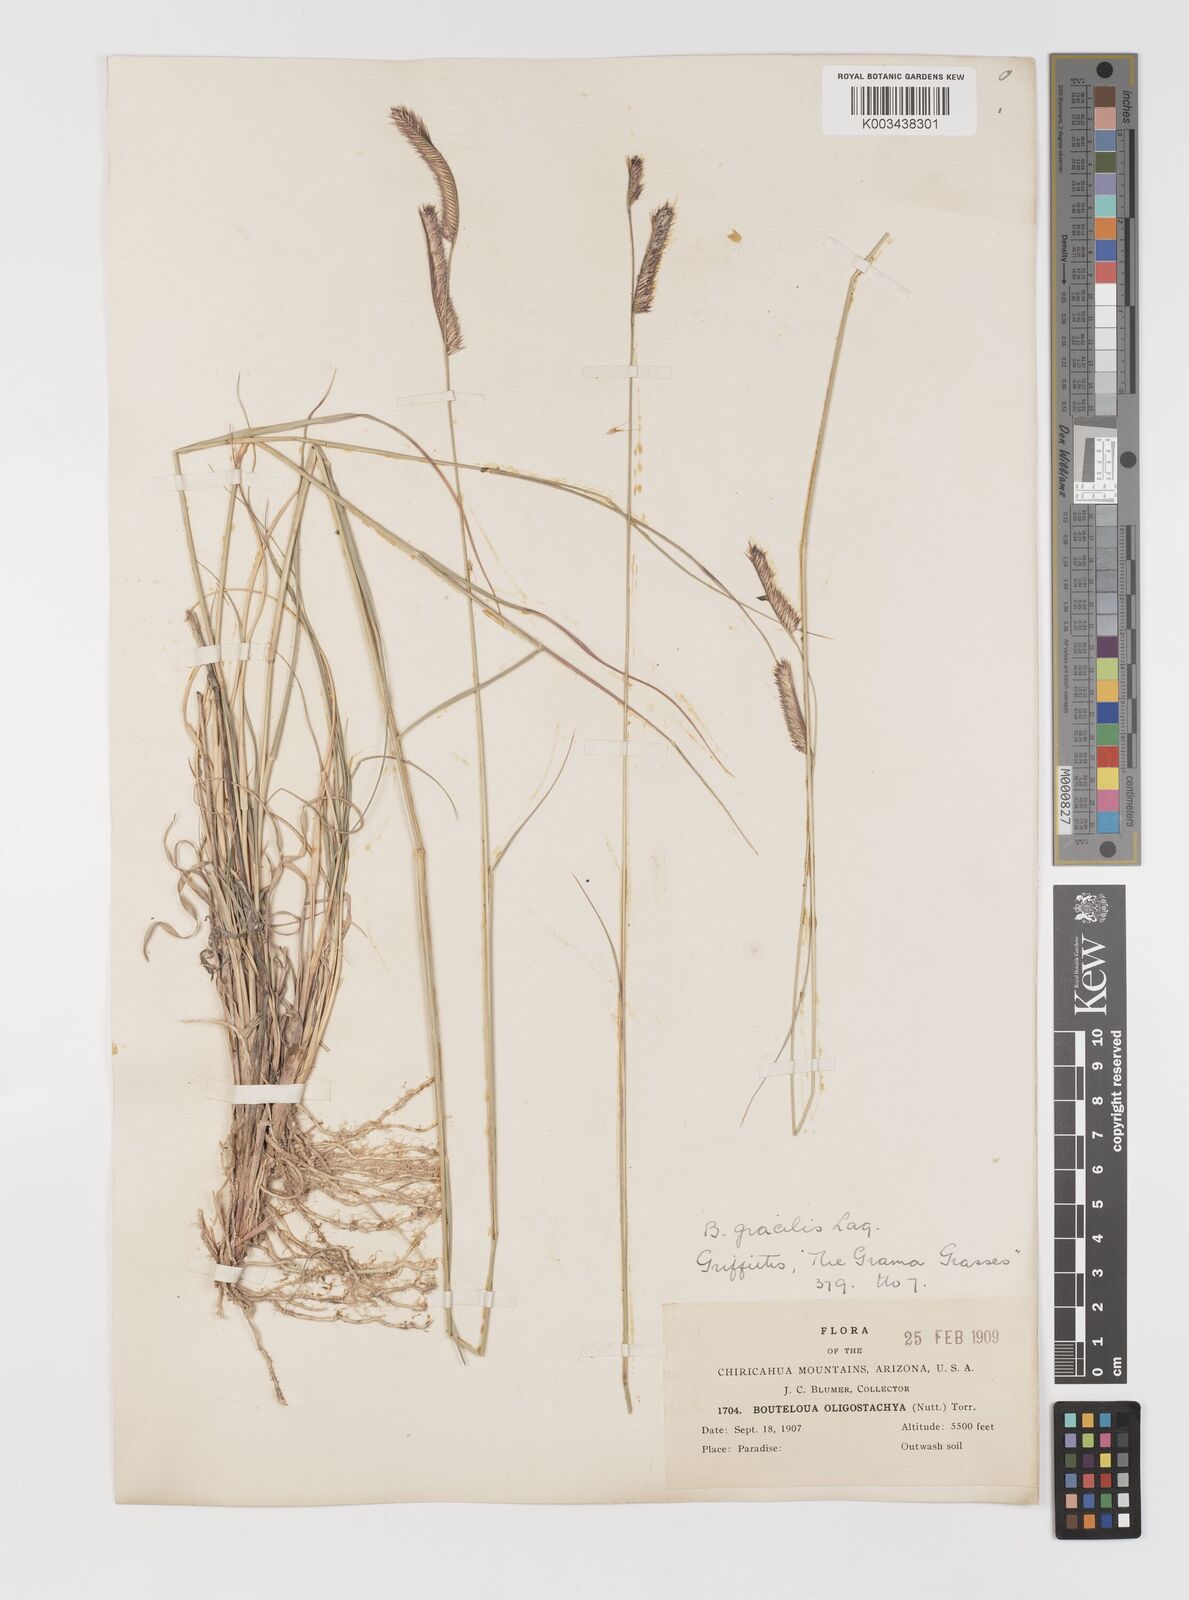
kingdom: Plantae
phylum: Tracheophyta
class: Liliopsida
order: Poales
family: Poaceae
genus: Bouteloua
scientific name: Bouteloua
